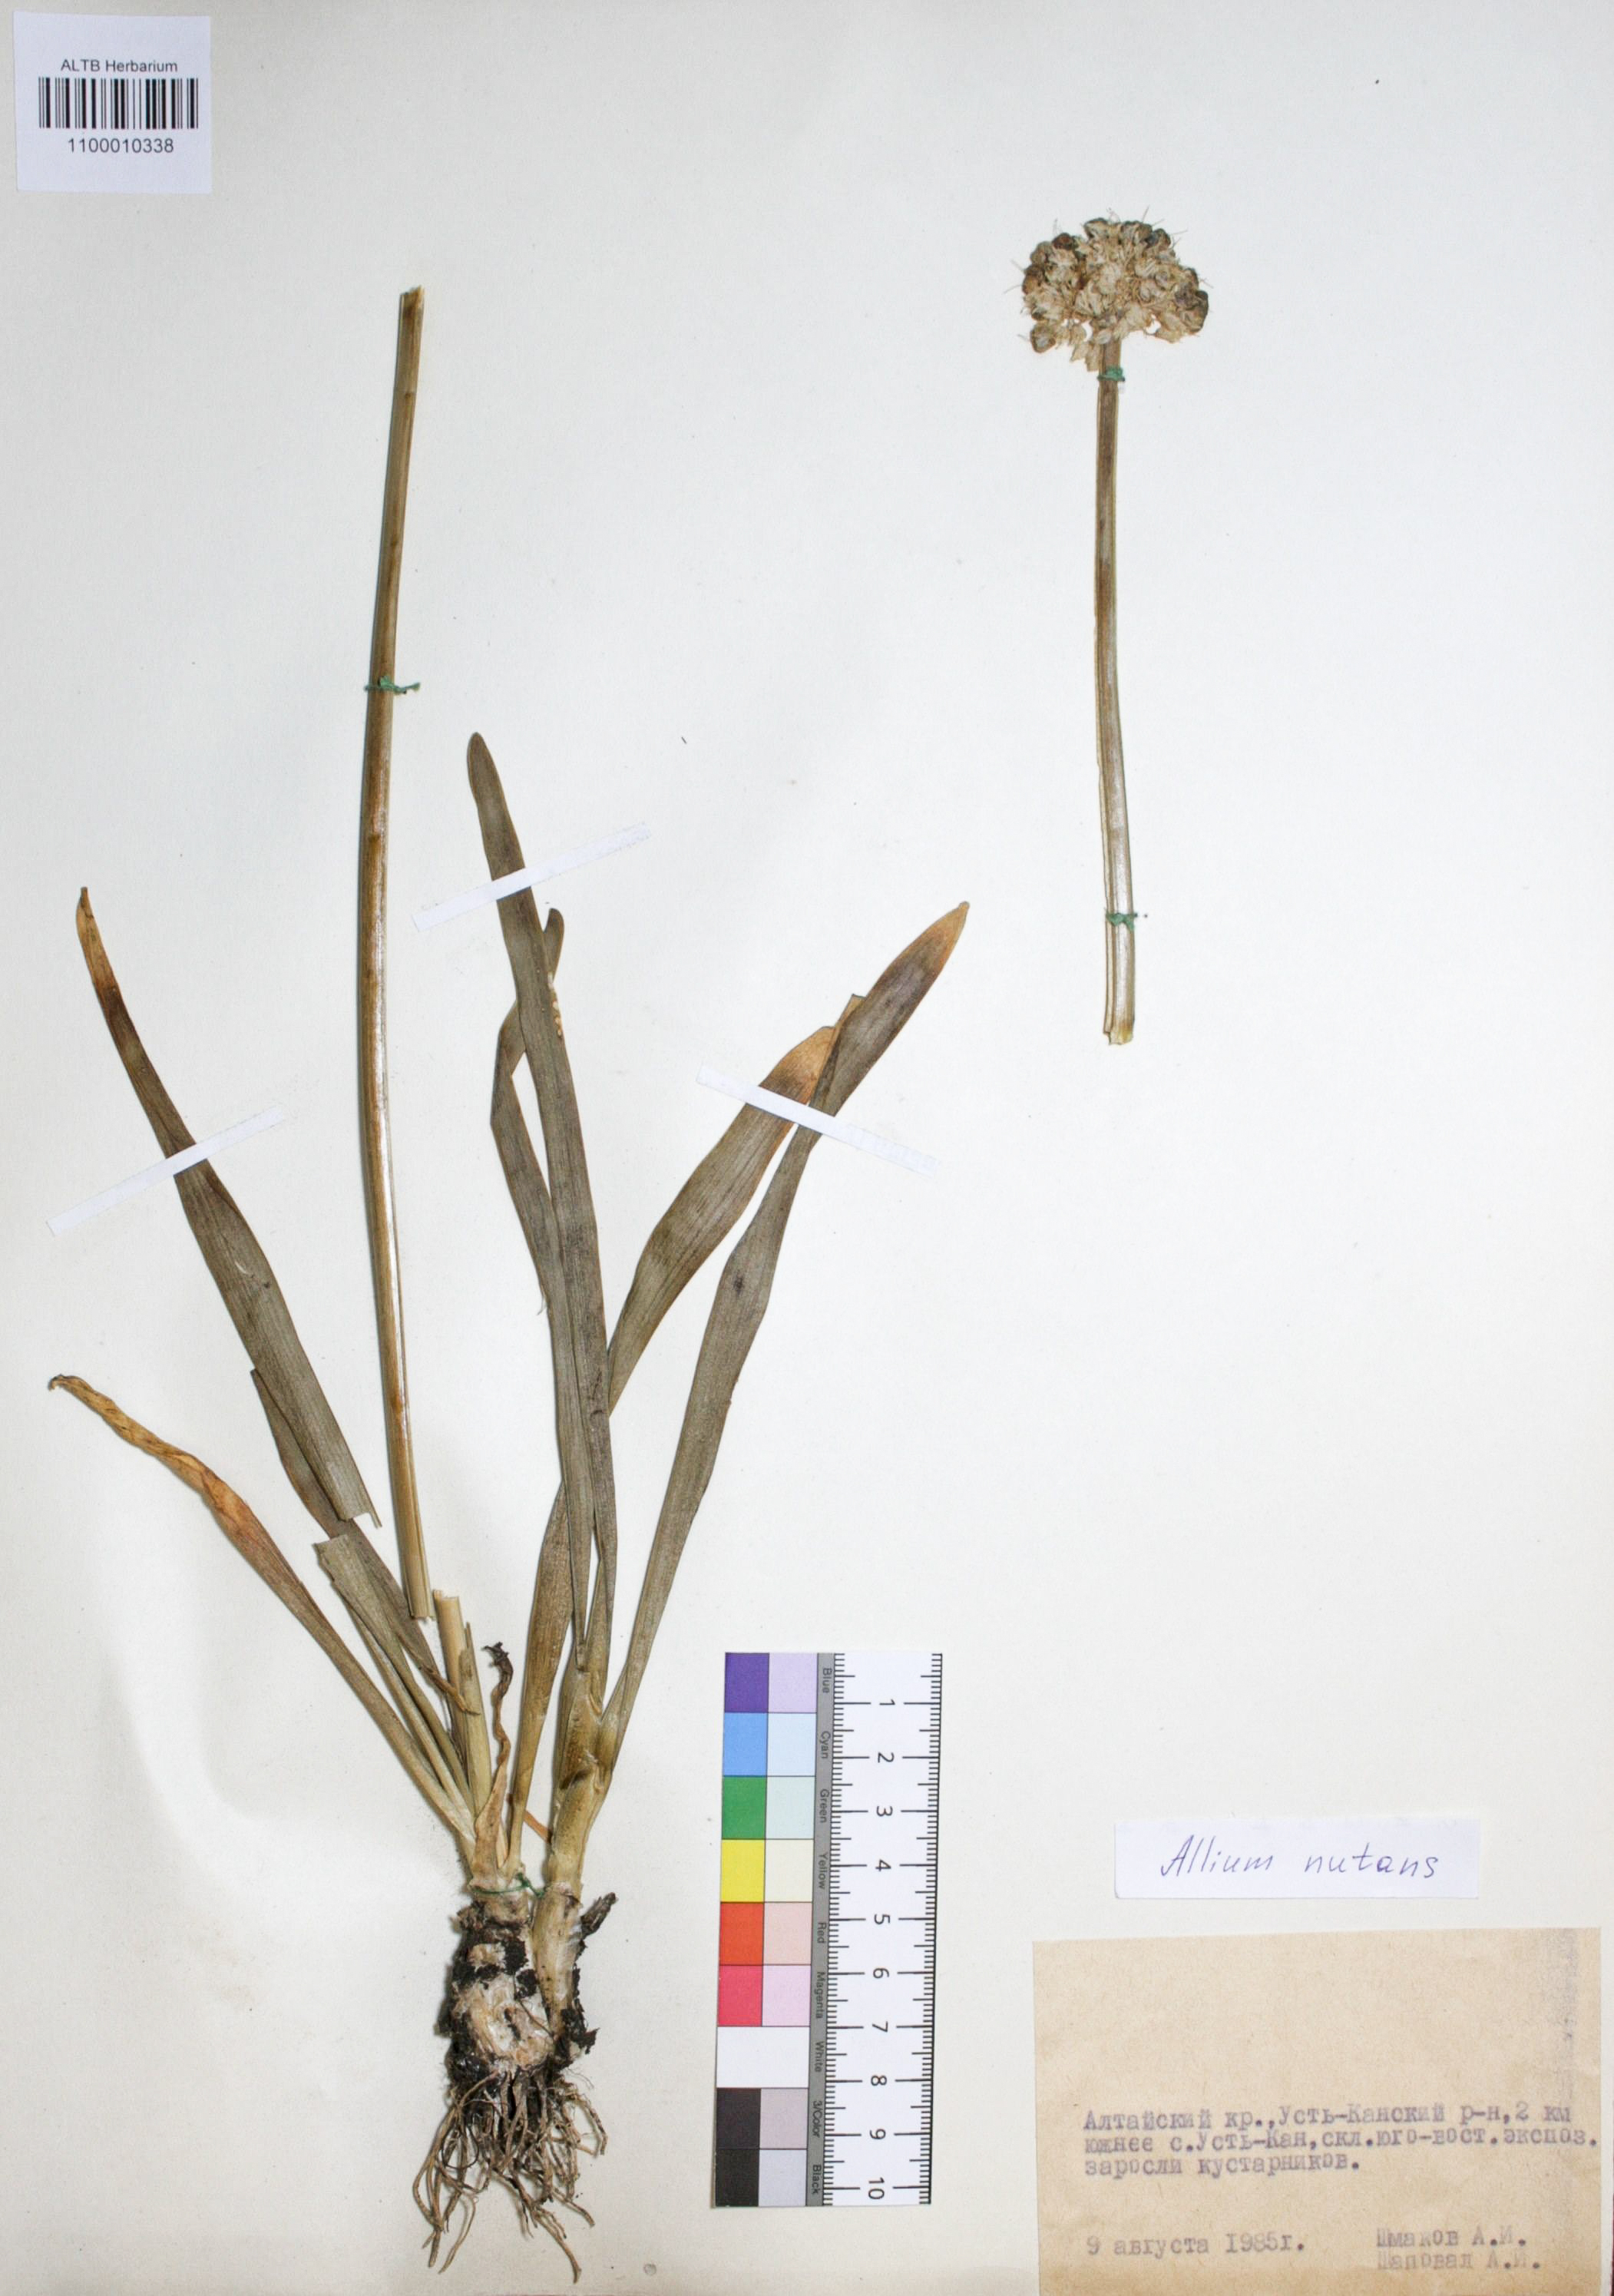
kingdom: Plantae
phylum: Tracheophyta
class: Liliopsida
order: Asparagales
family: Amaryllidaceae
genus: Allium
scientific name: Allium nutans
